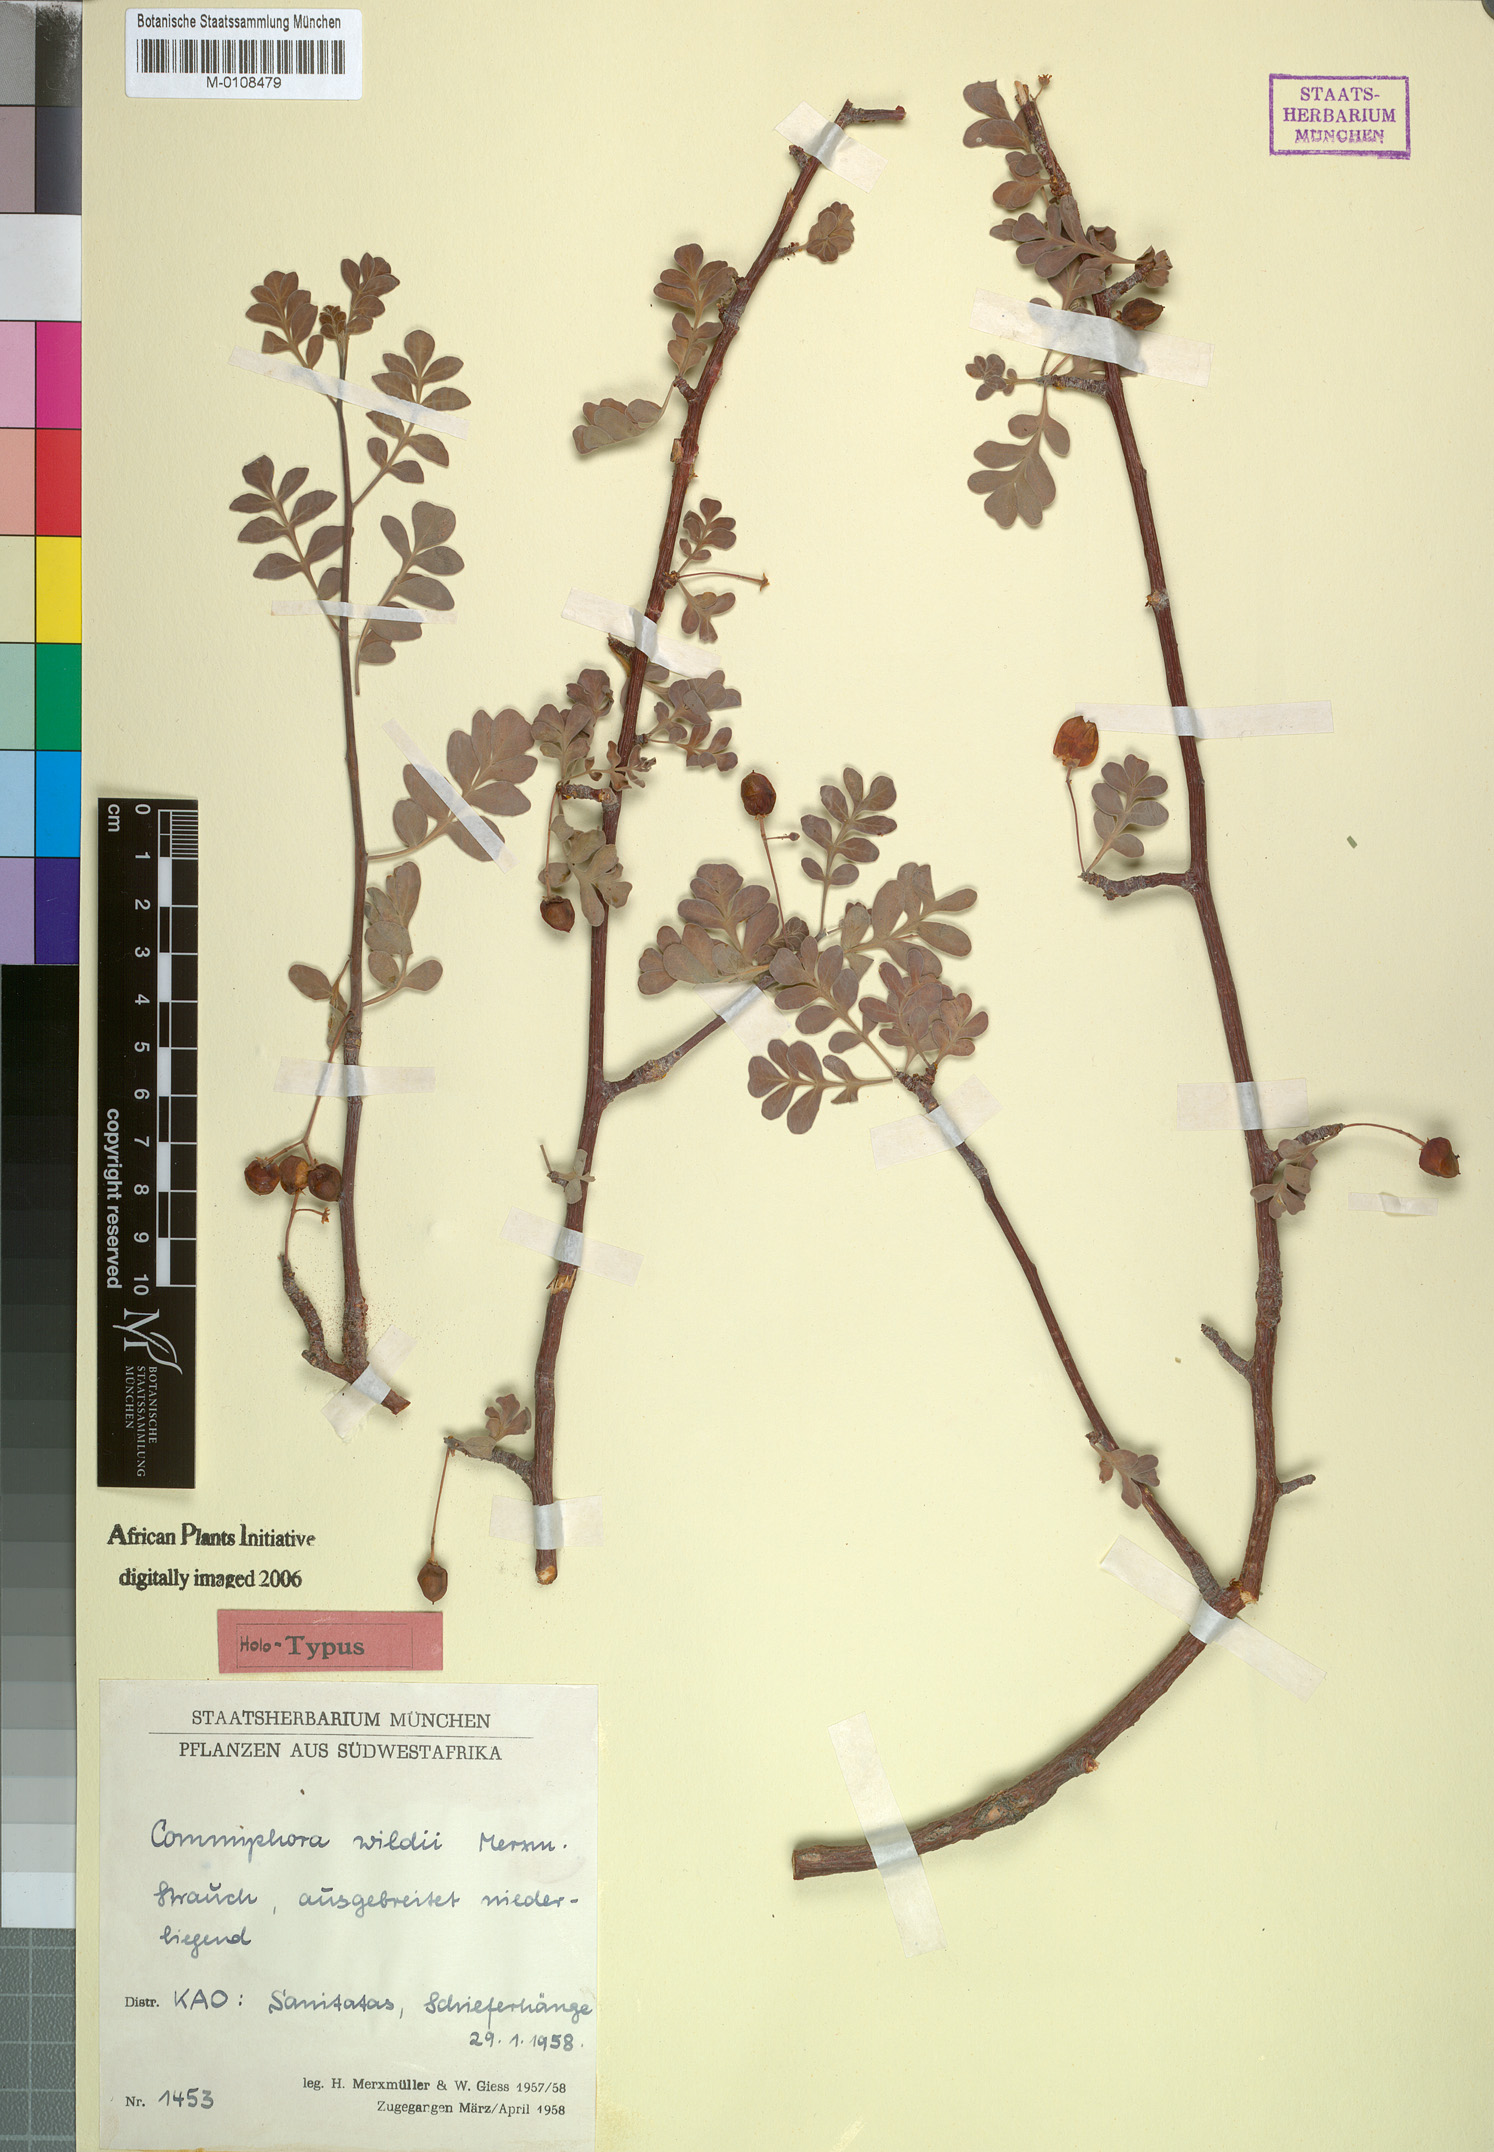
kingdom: Plantae
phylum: Tracheophyta
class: Magnoliopsida
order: Sapindales
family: Burseraceae
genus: Commiphora
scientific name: Commiphora wildii
